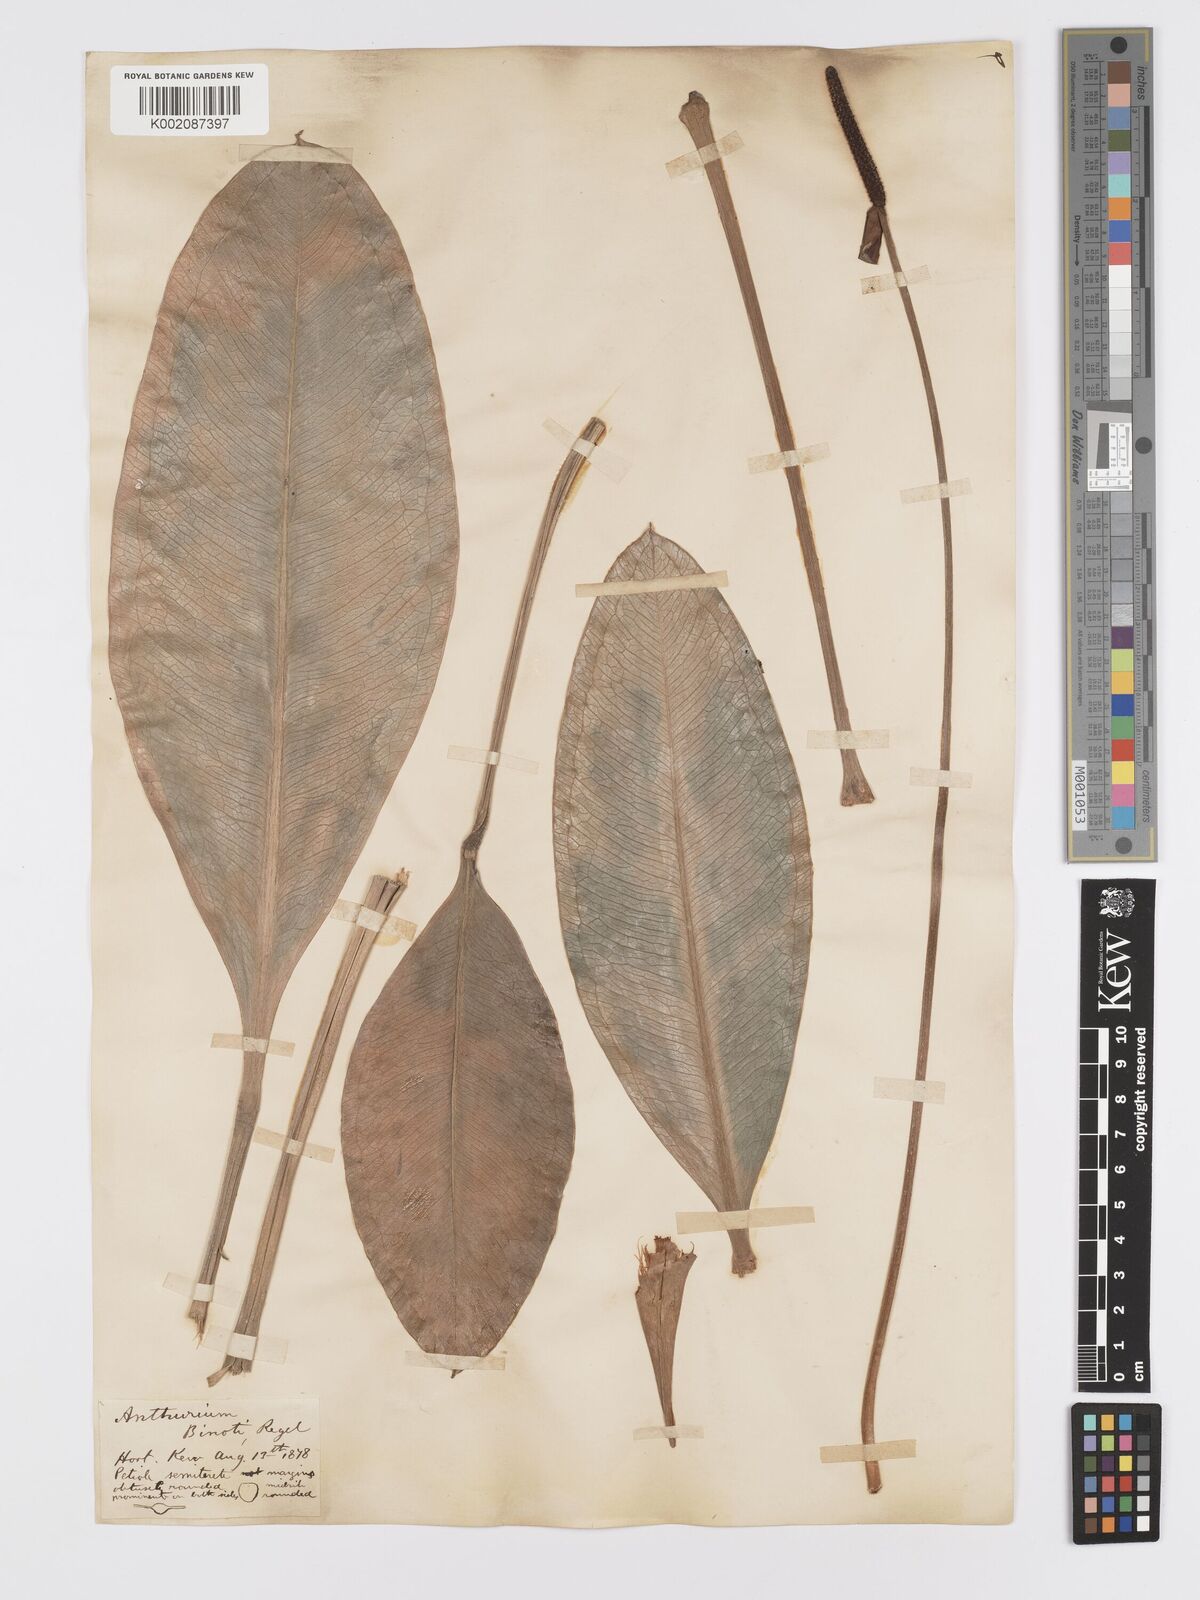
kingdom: Plantae
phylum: Tracheophyta
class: Liliopsida
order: Alismatales
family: Araceae
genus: Anthurium
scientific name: Anthurium binotii
